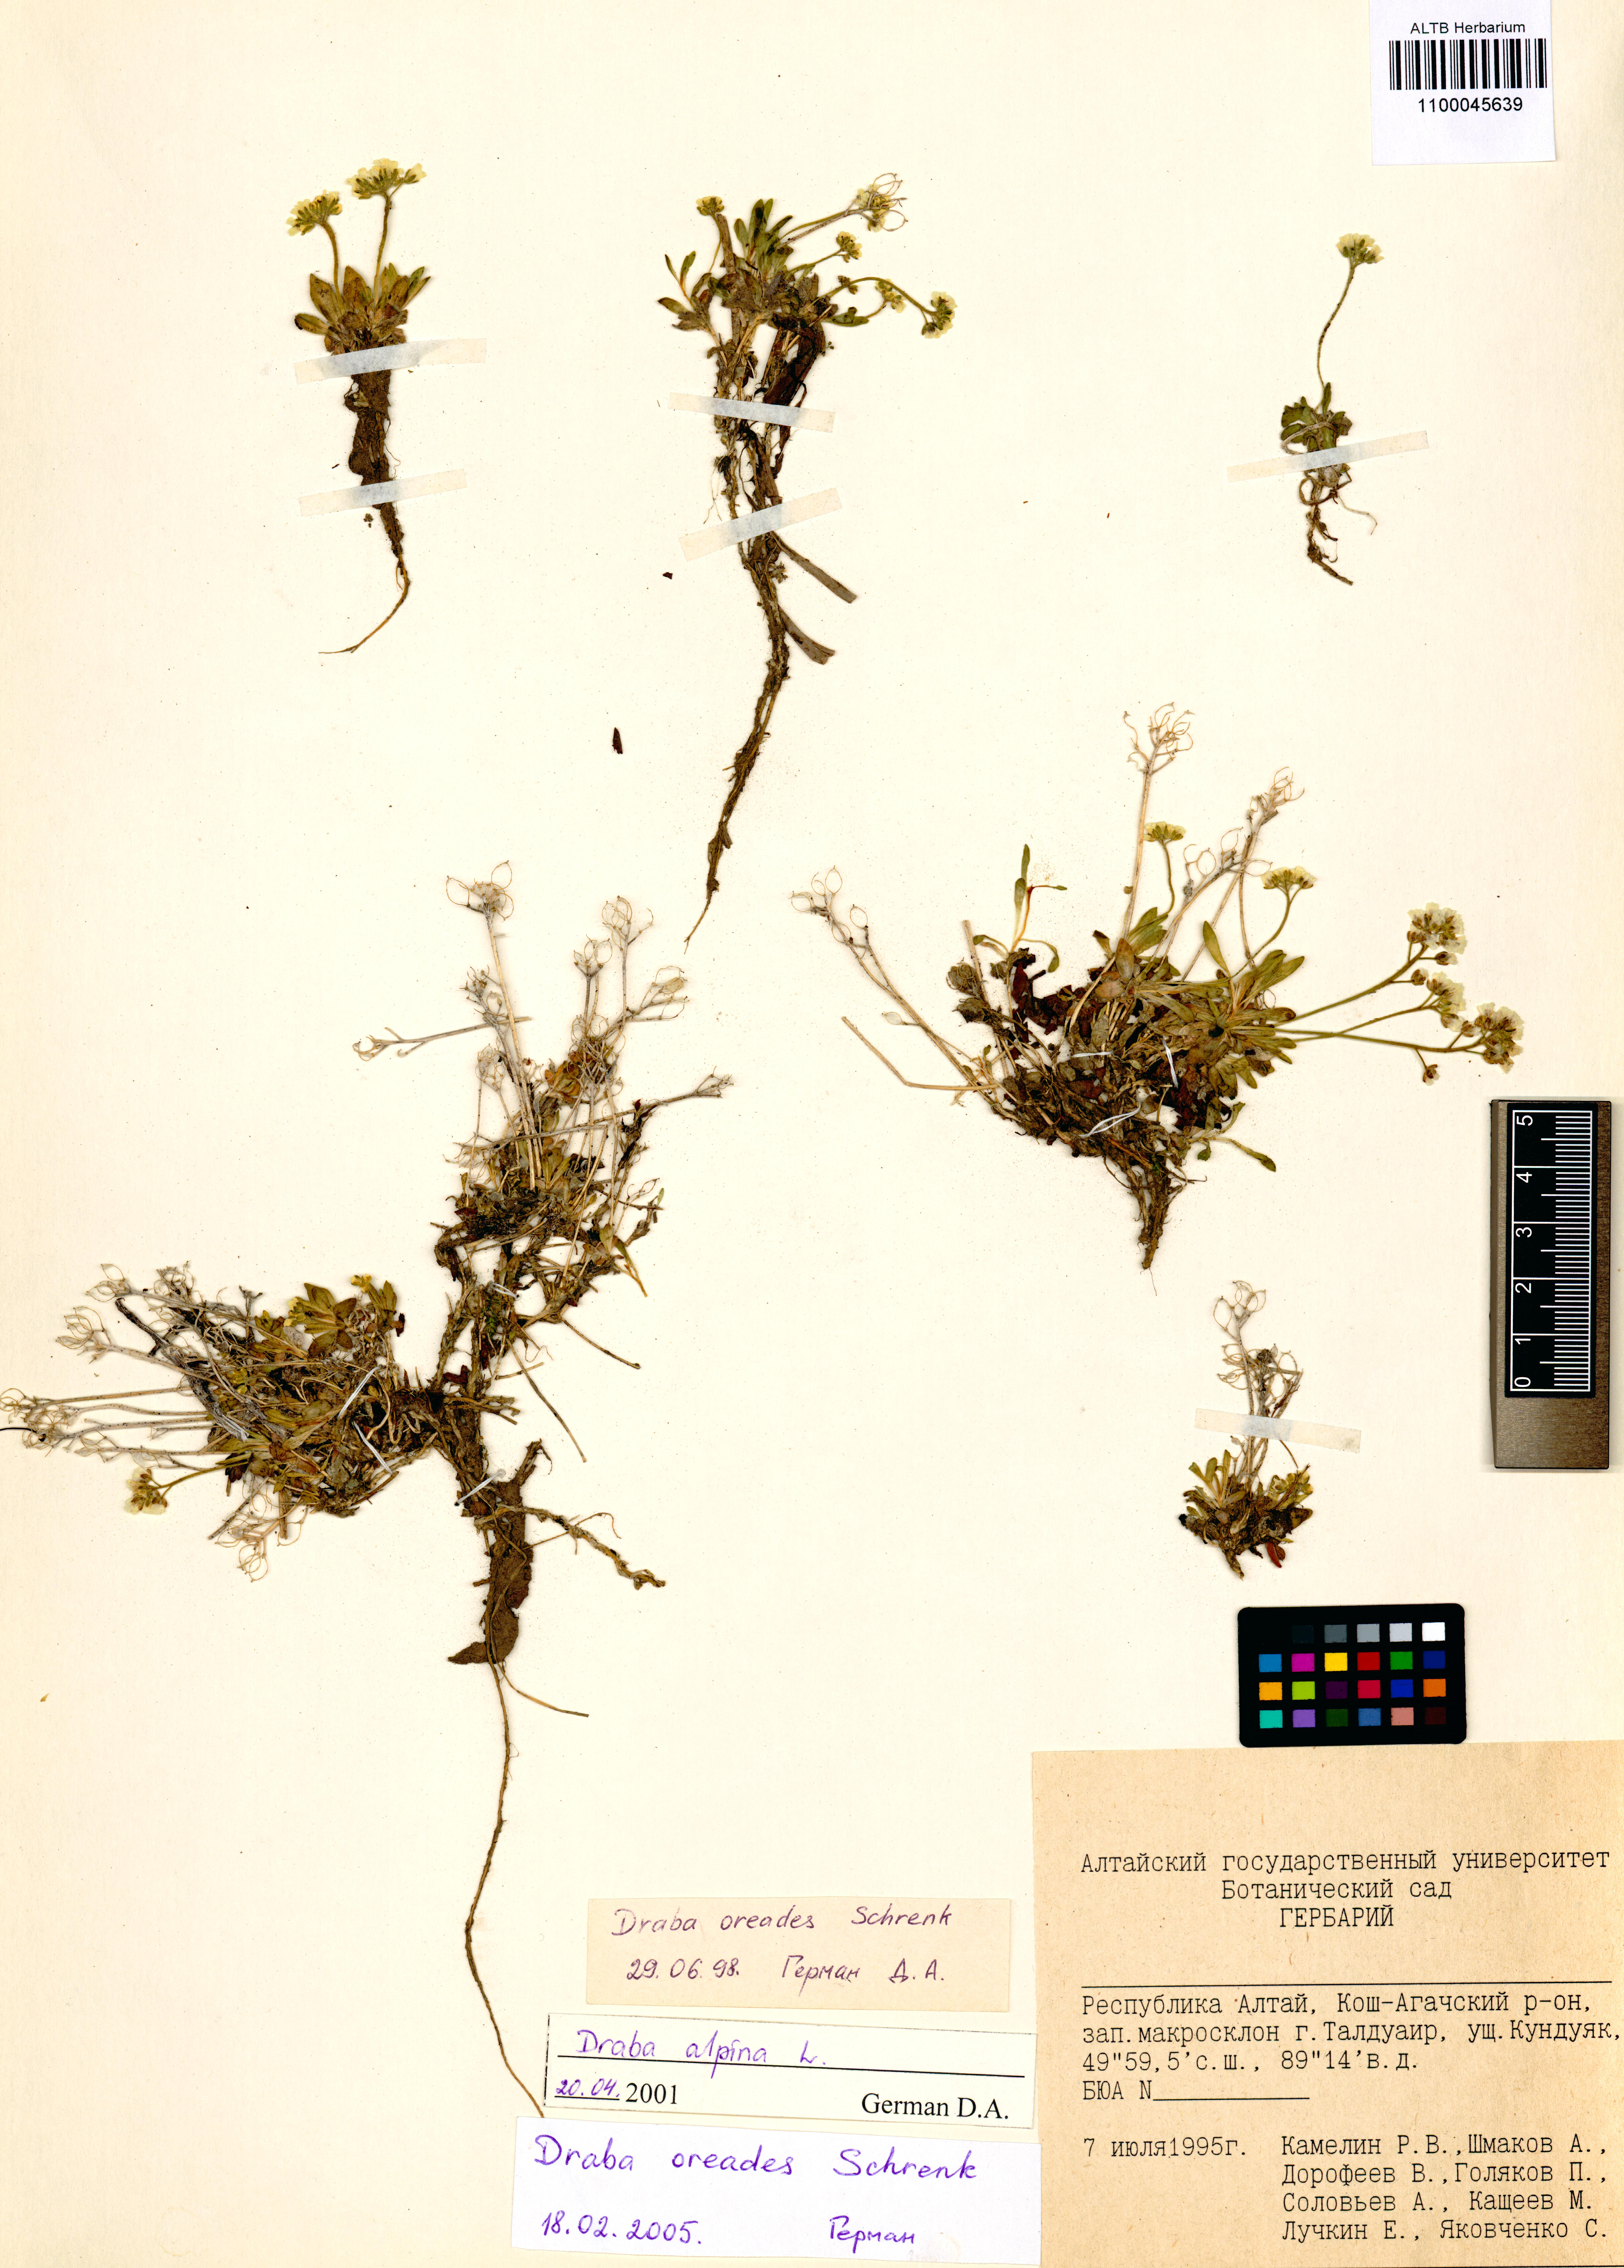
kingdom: Plantae
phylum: Tracheophyta
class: Magnoliopsida
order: Brassicales
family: Brassicaceae
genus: Draba
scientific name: Draba oreades
